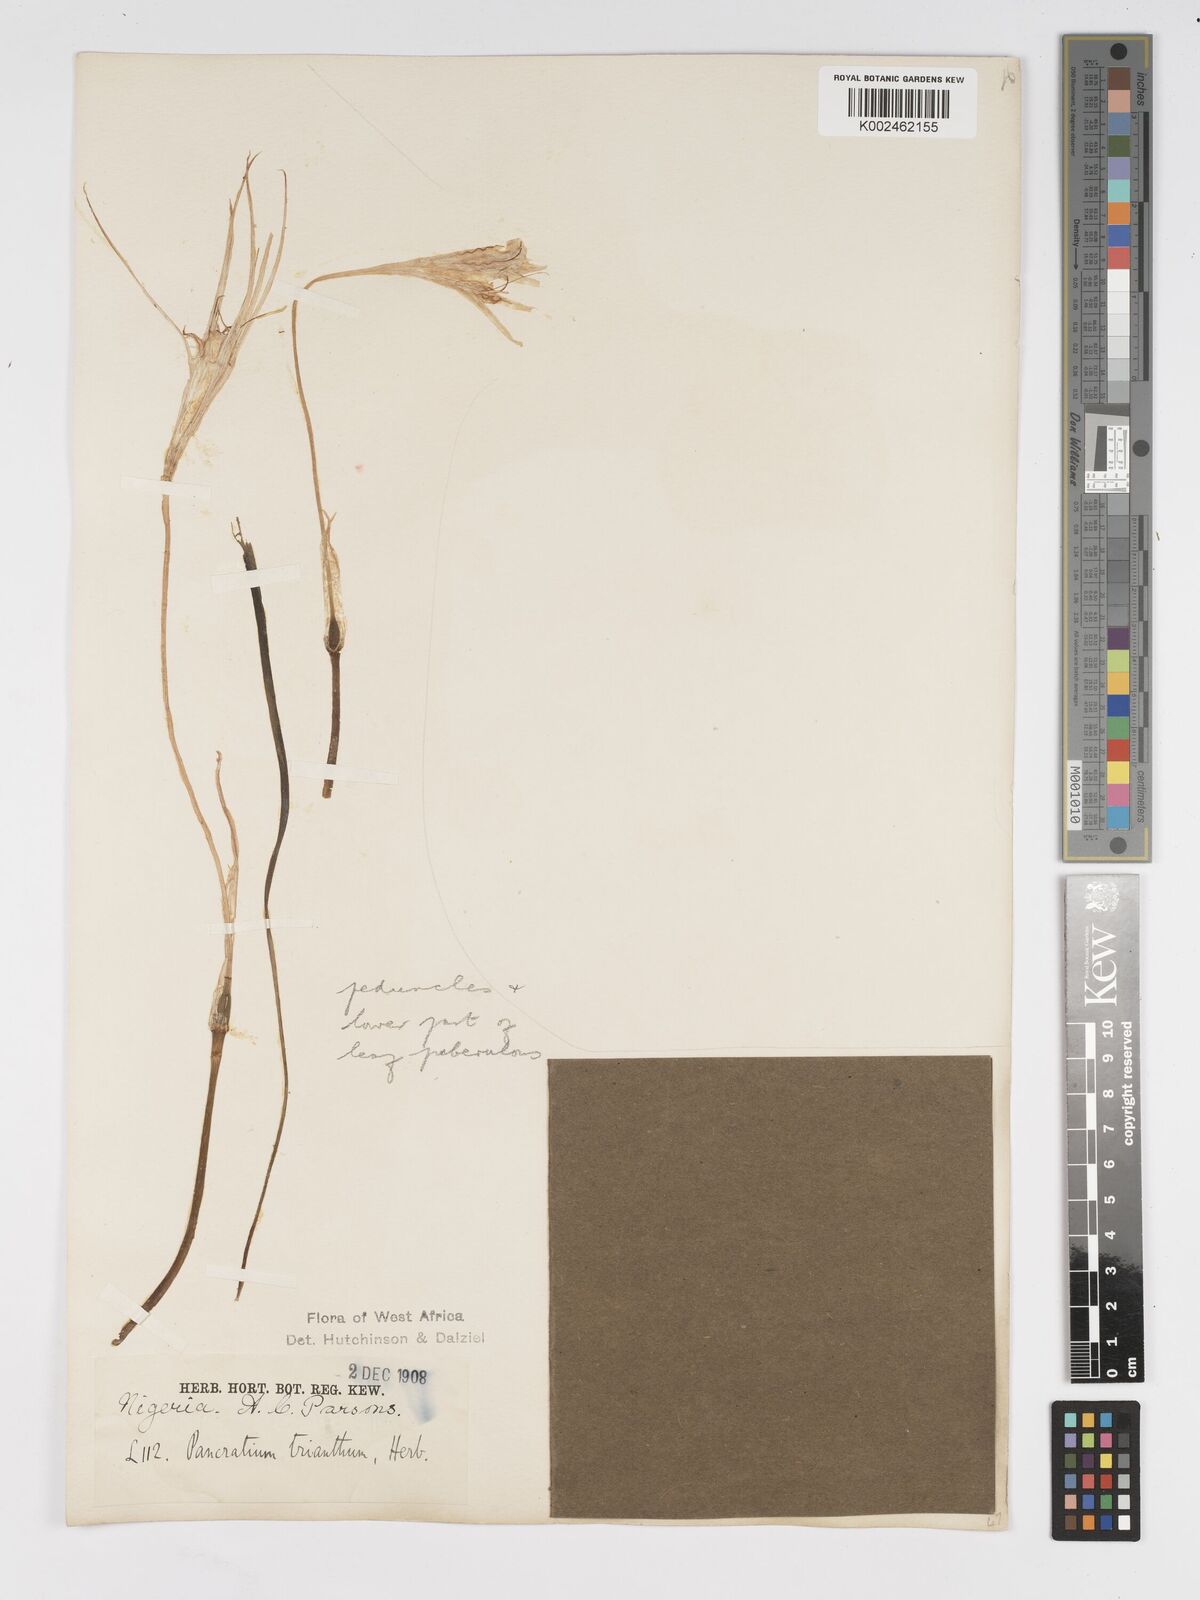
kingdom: Plantae
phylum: Tracheophyta
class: Liliopsida
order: Asparagales
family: Amaryllidaceae
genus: Pancratium
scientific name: Pancratium trianthum
